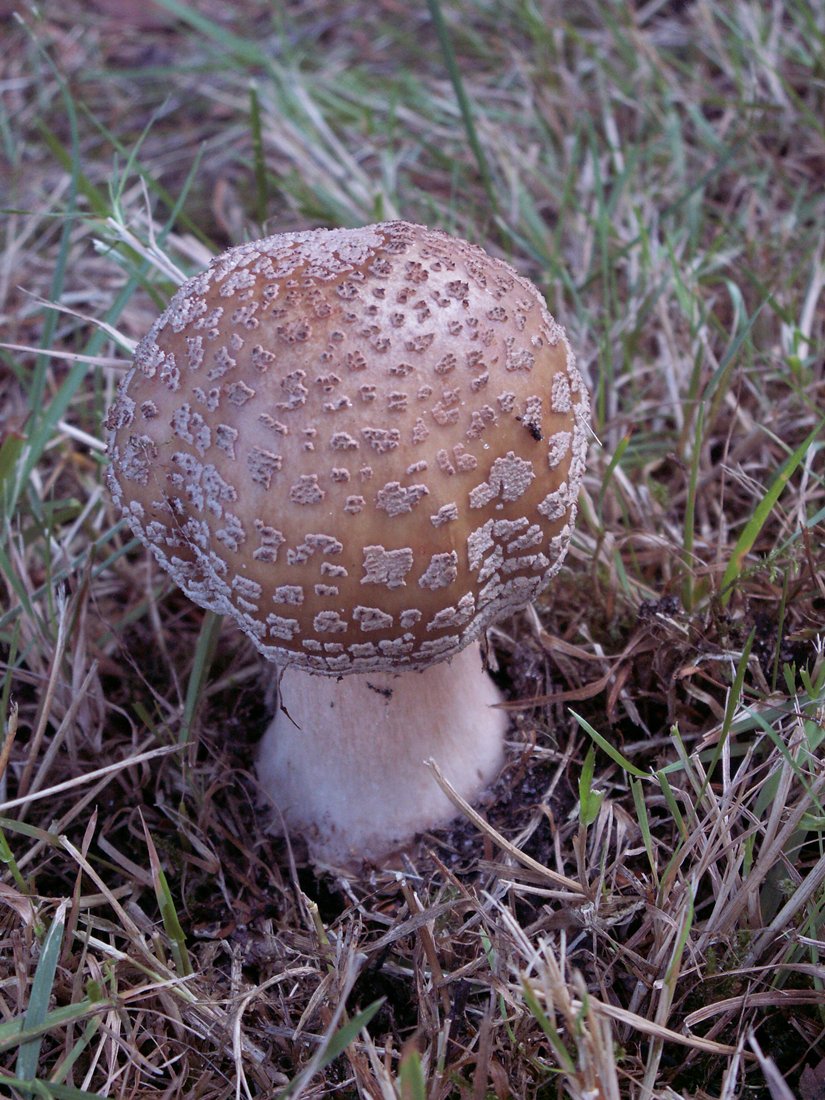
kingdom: Fungi
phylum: Basidiomycota
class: Agaricomycetes
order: Agaricales
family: Amanitaceae
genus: Amanita
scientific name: Amanita rubescens
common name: rødmende fluesvamp
